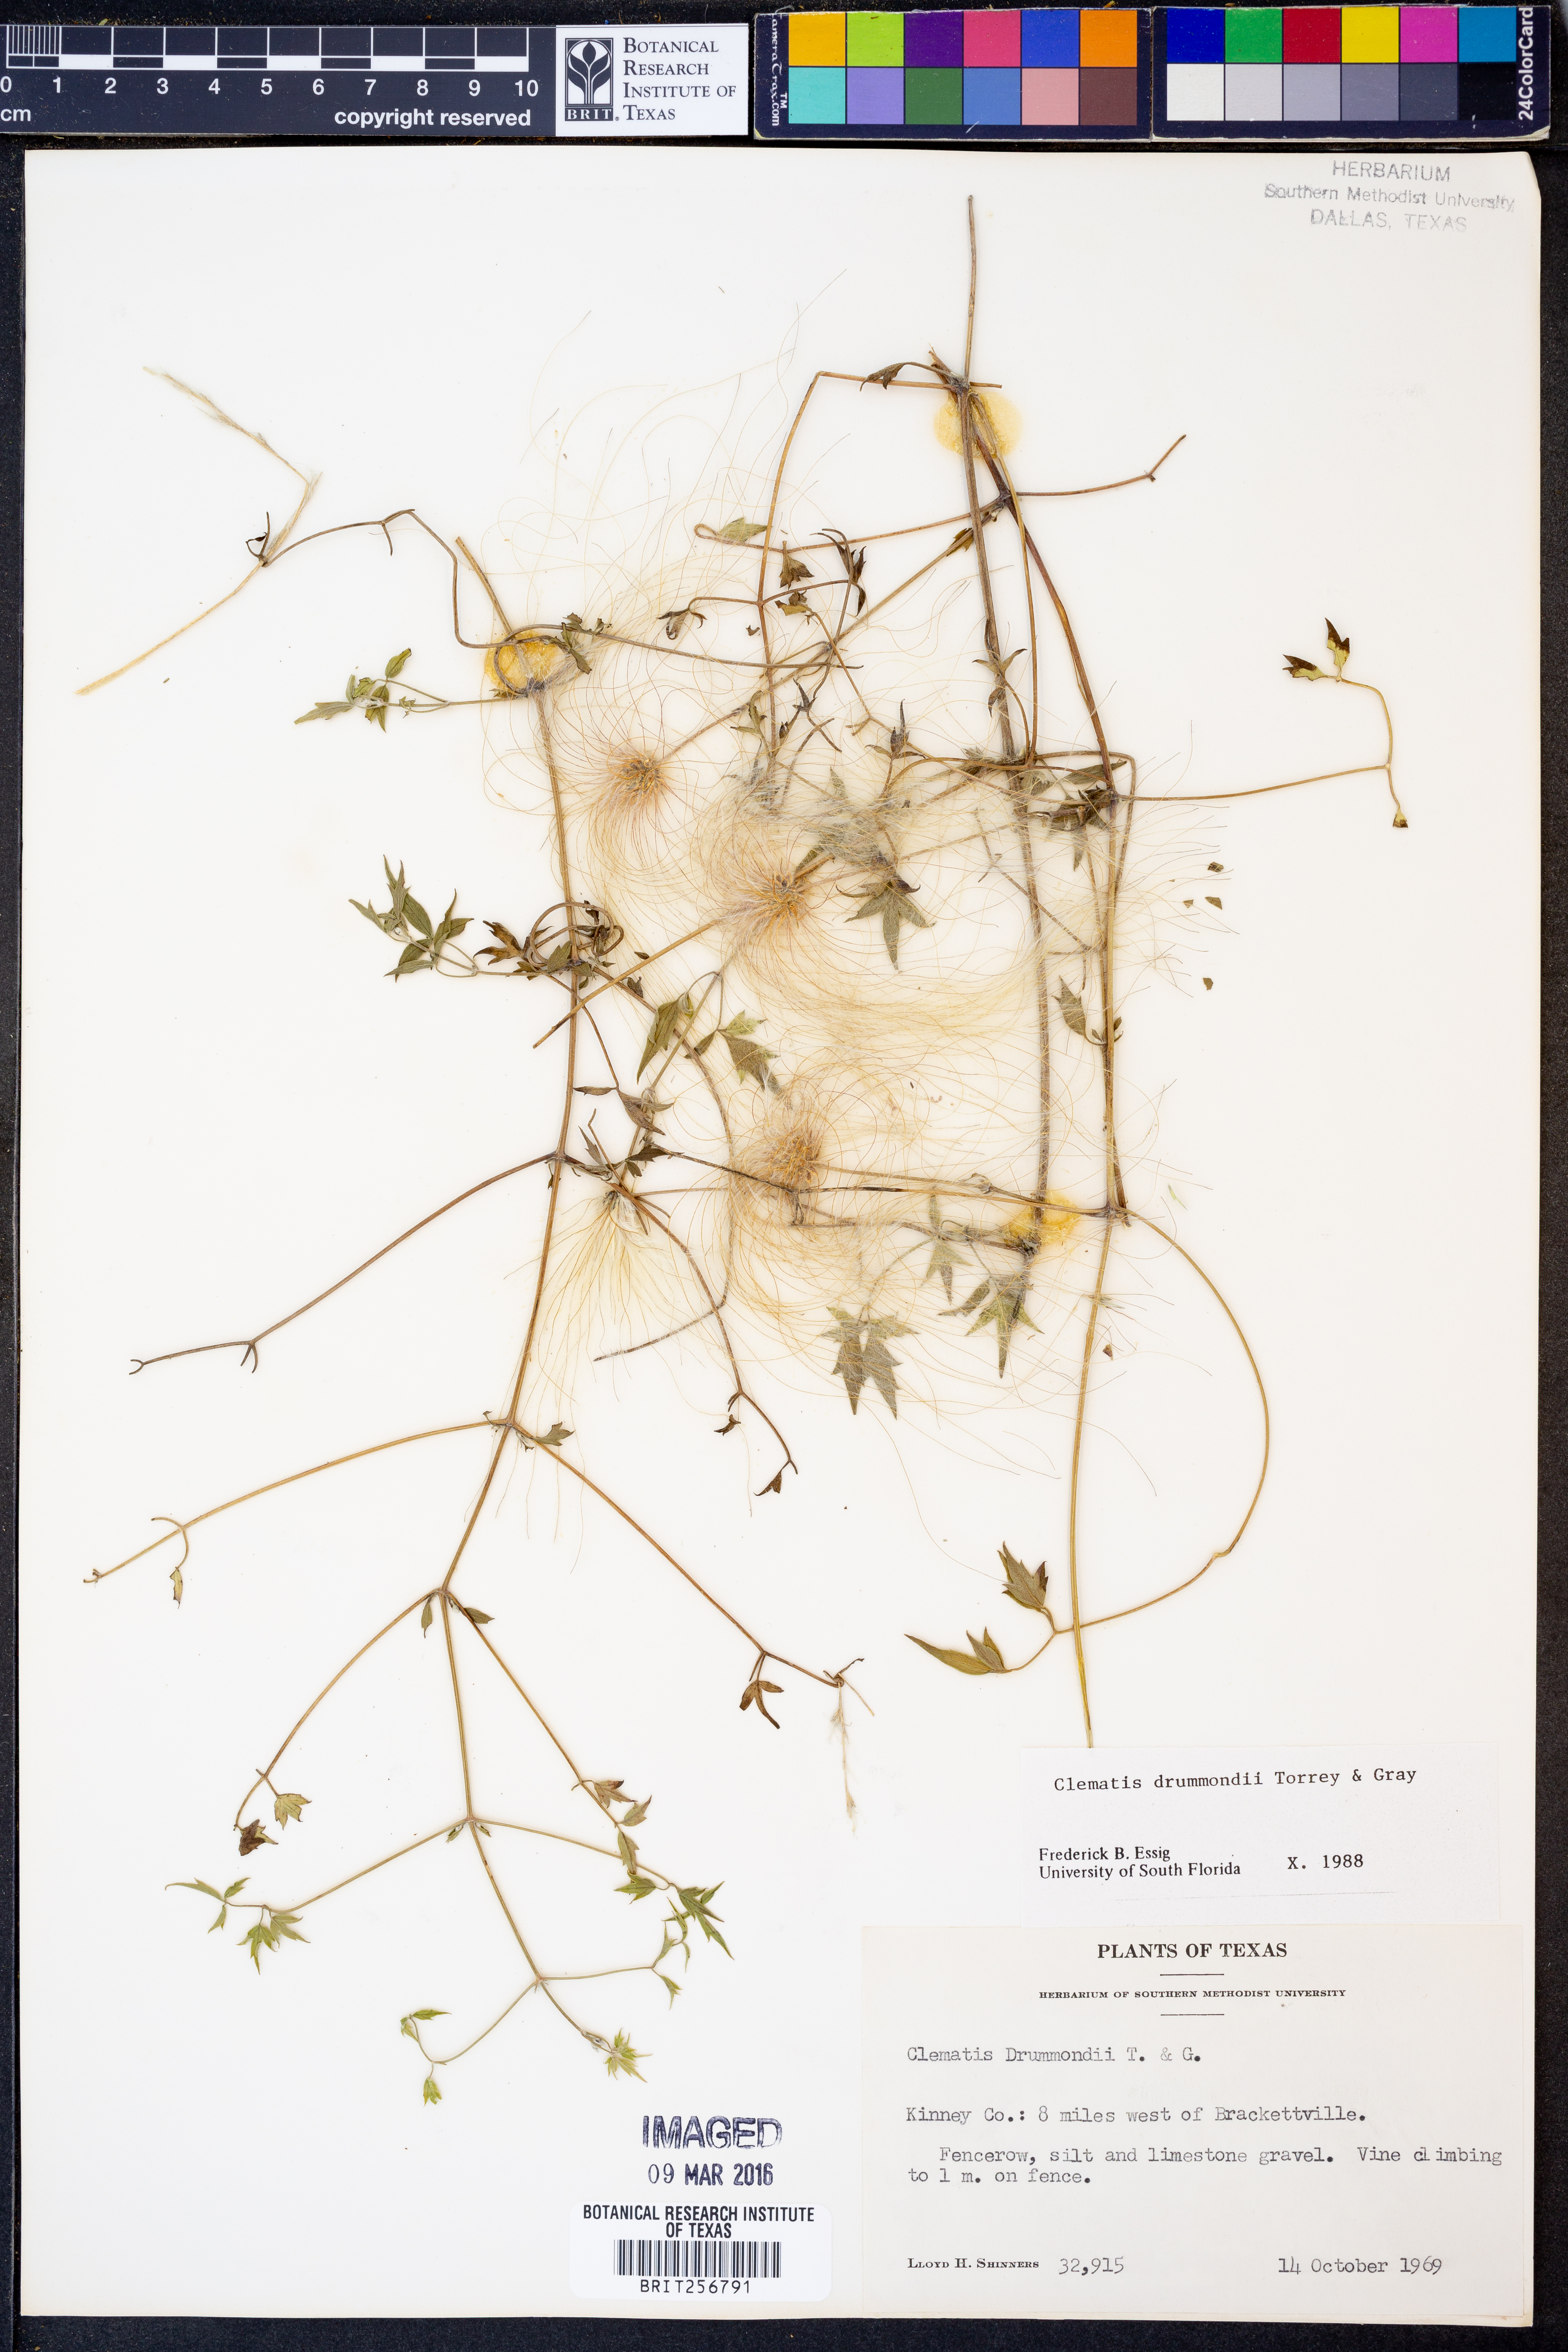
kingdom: Plantae
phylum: Tracheophyta
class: Magnoliopsida
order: Ranunculales
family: Ranunculaceae
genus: Clematis
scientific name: Clematis drummondii
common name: Texas virgin's bower
